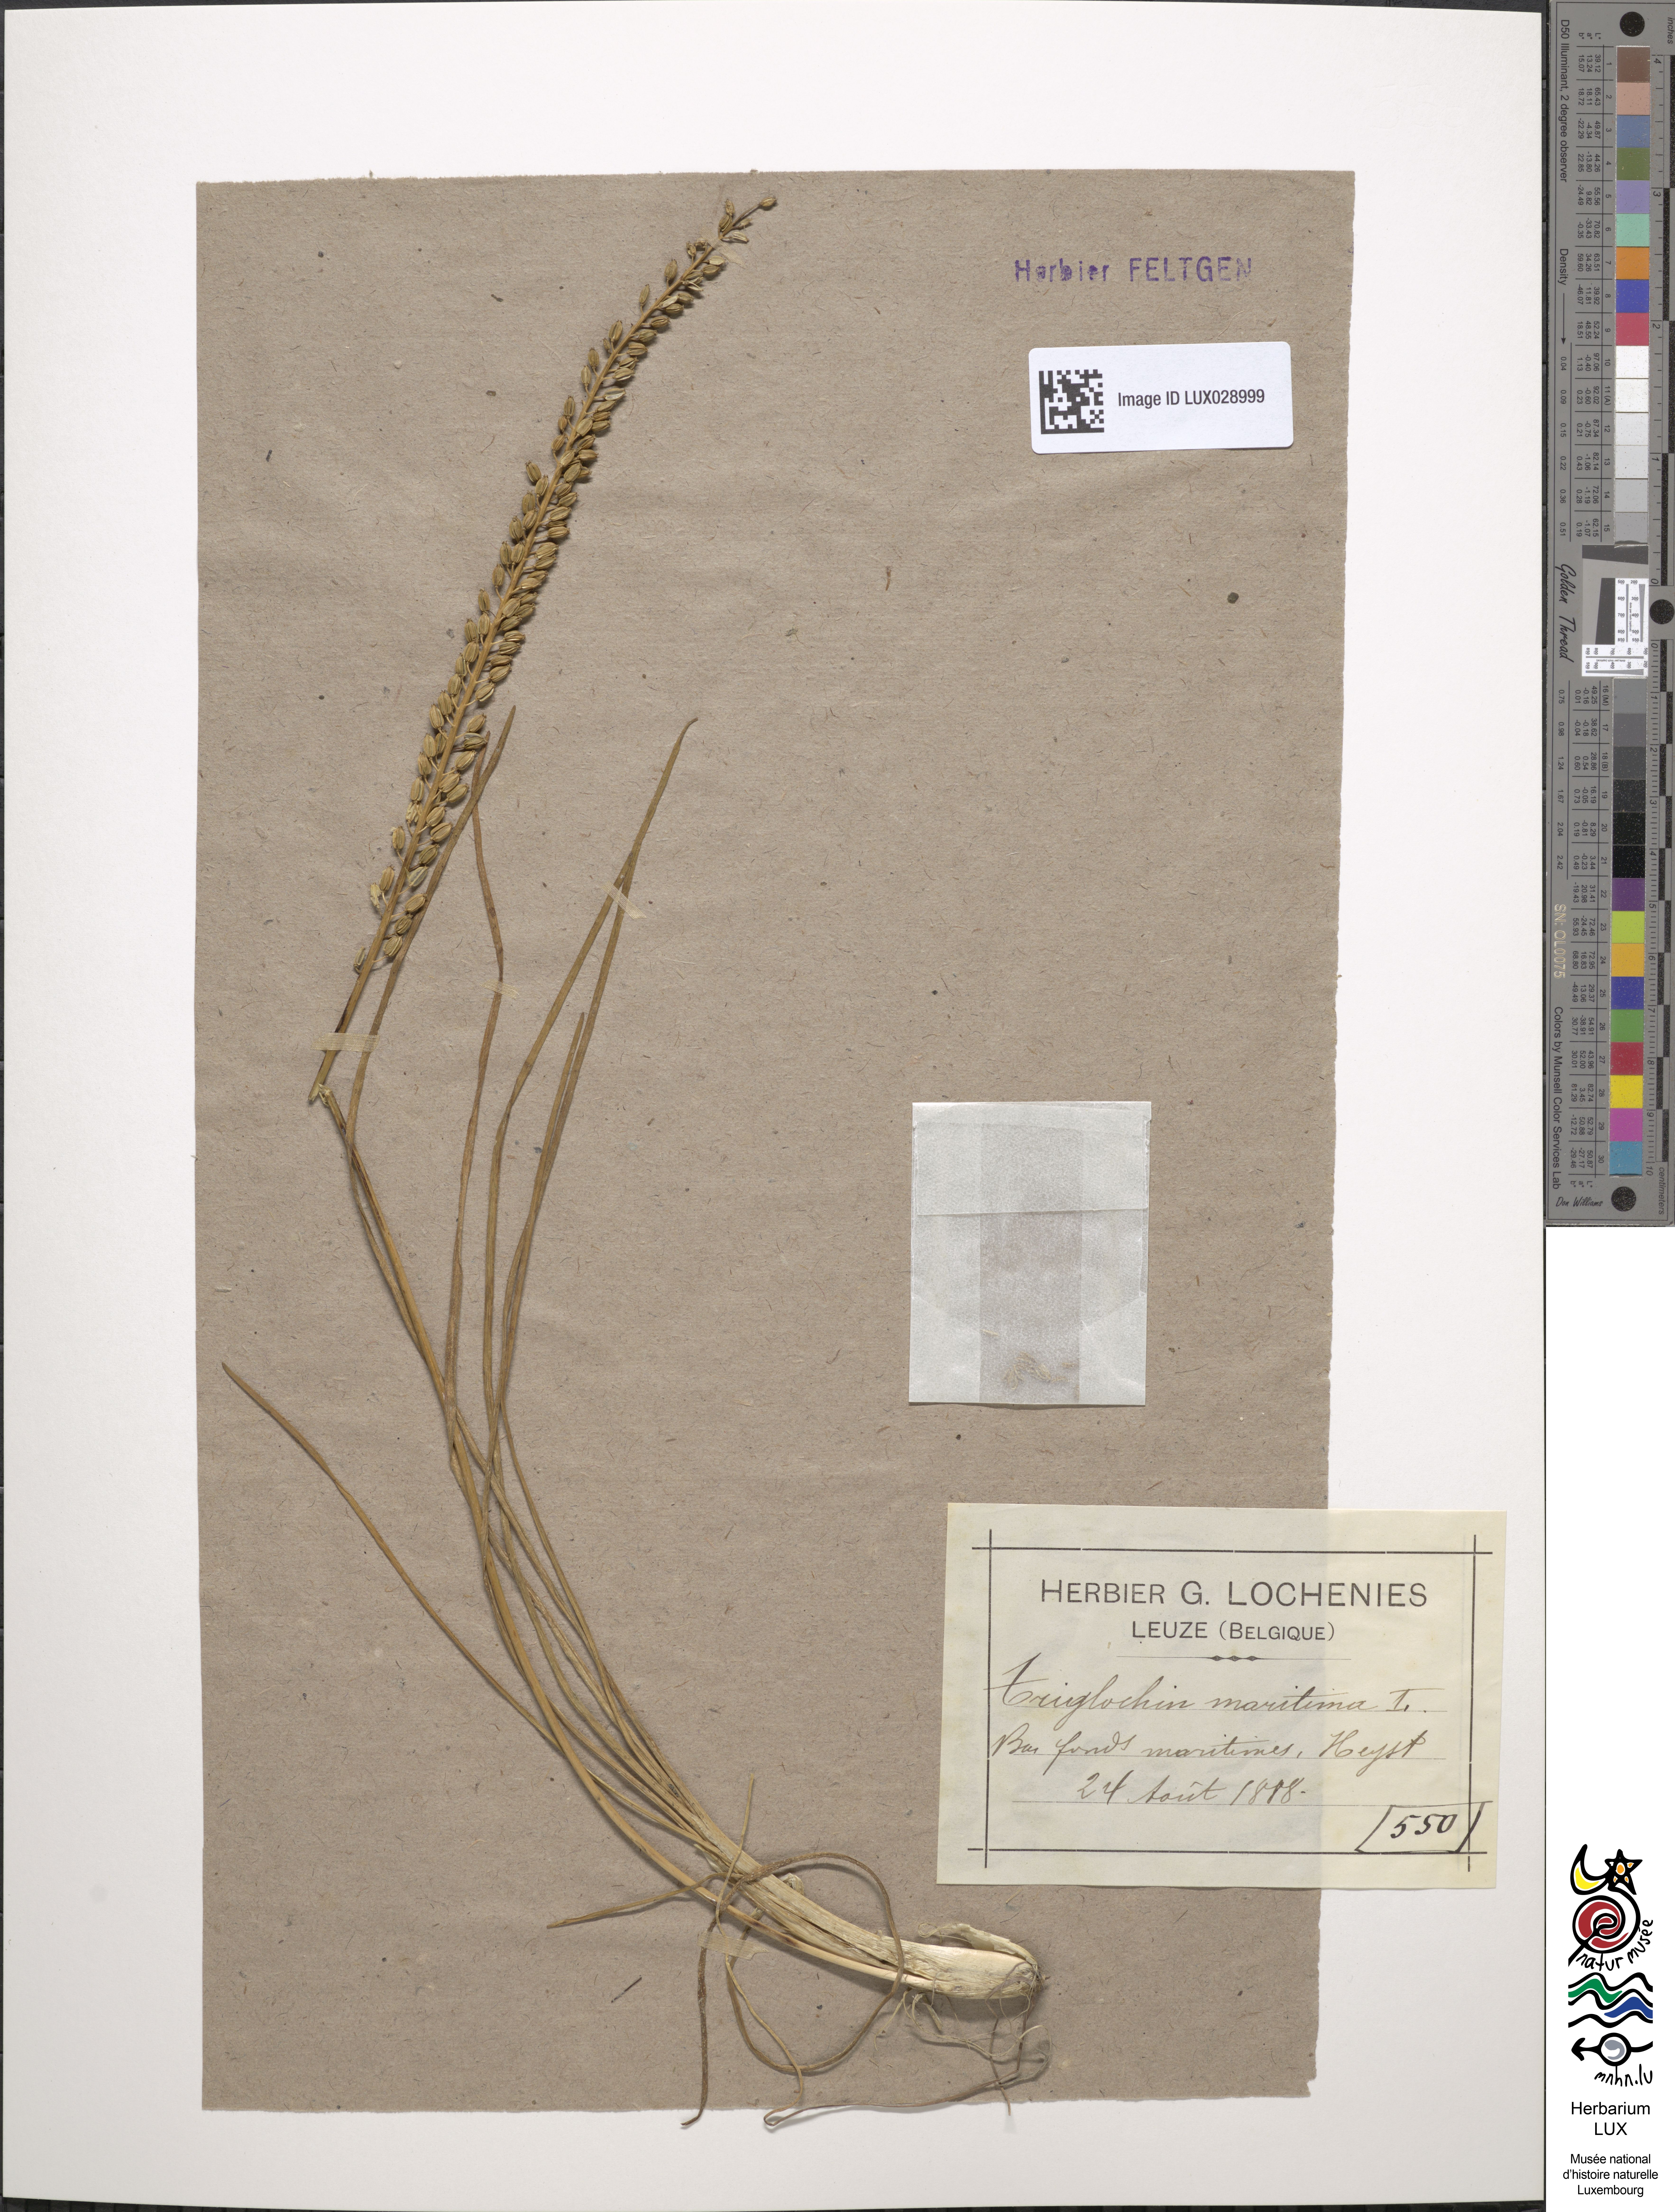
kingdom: Plantae
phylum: Tracheophyta
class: Liliopsida
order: Alismatales
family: Juncaginaceae
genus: Triglochin
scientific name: Triglochin maritima
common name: Sea arrowgrass
